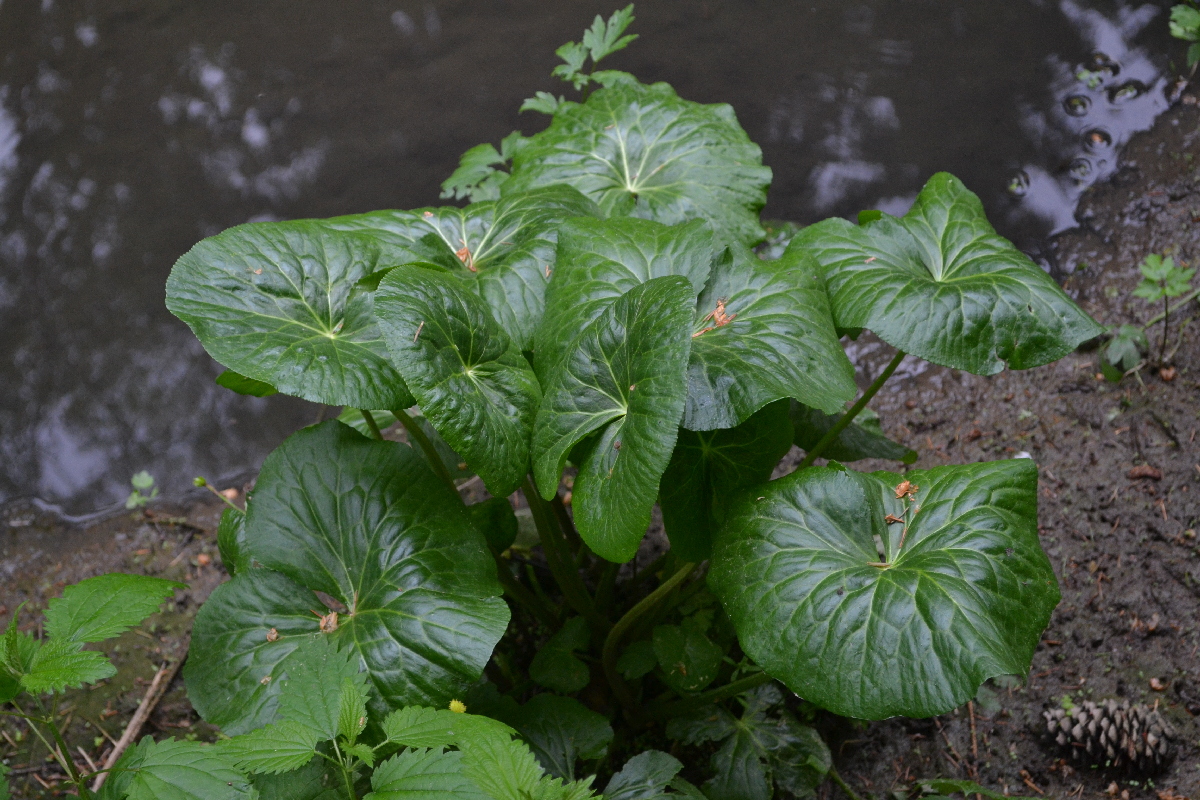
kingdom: Plantae
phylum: Tracheophyta
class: Magnoliopsida
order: Ranunculales
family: Ranunculaceae
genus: Caltha
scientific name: Caltha palustris
